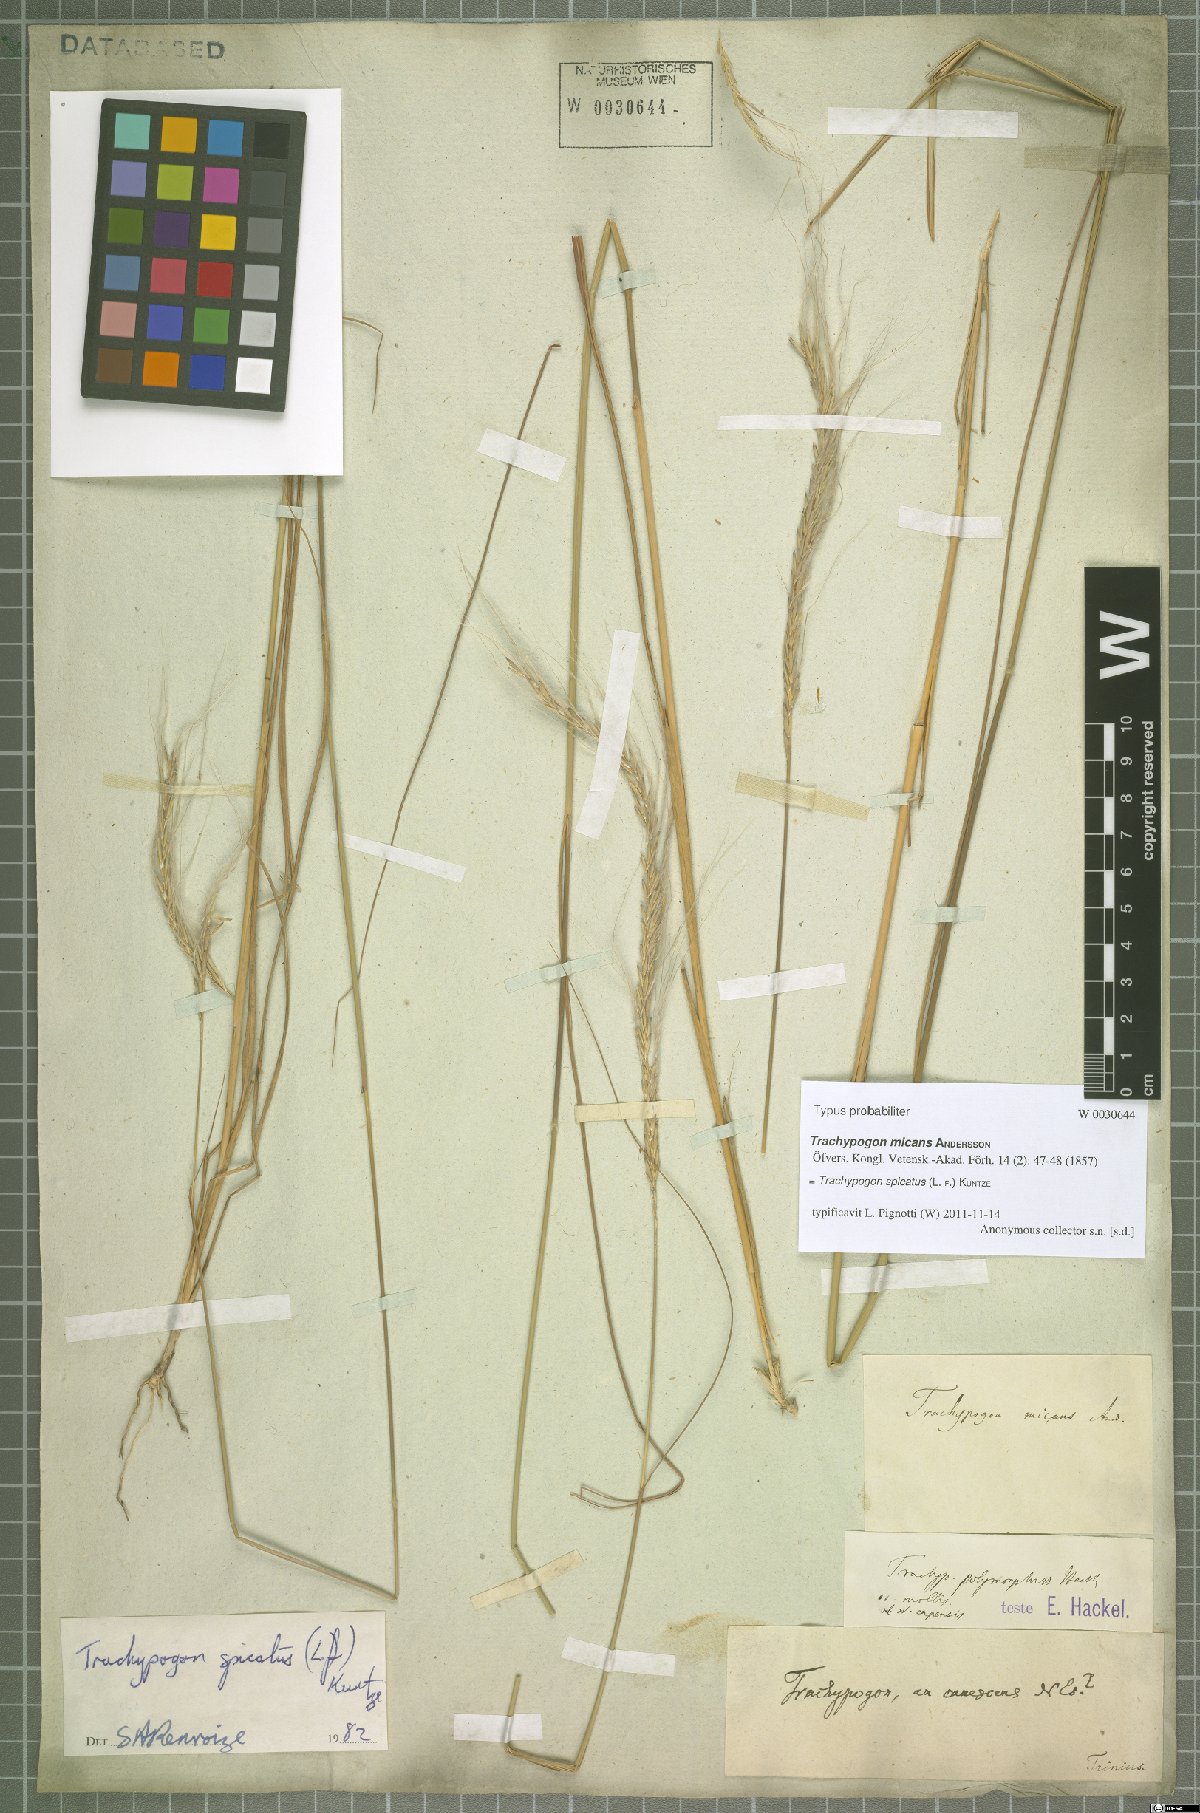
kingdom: Plantae
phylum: Tracheophyta
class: Liliopsida
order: Poales
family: Poaceae
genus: Trachypogon
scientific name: Trachypogon spicatus
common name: Crinkle-awn
